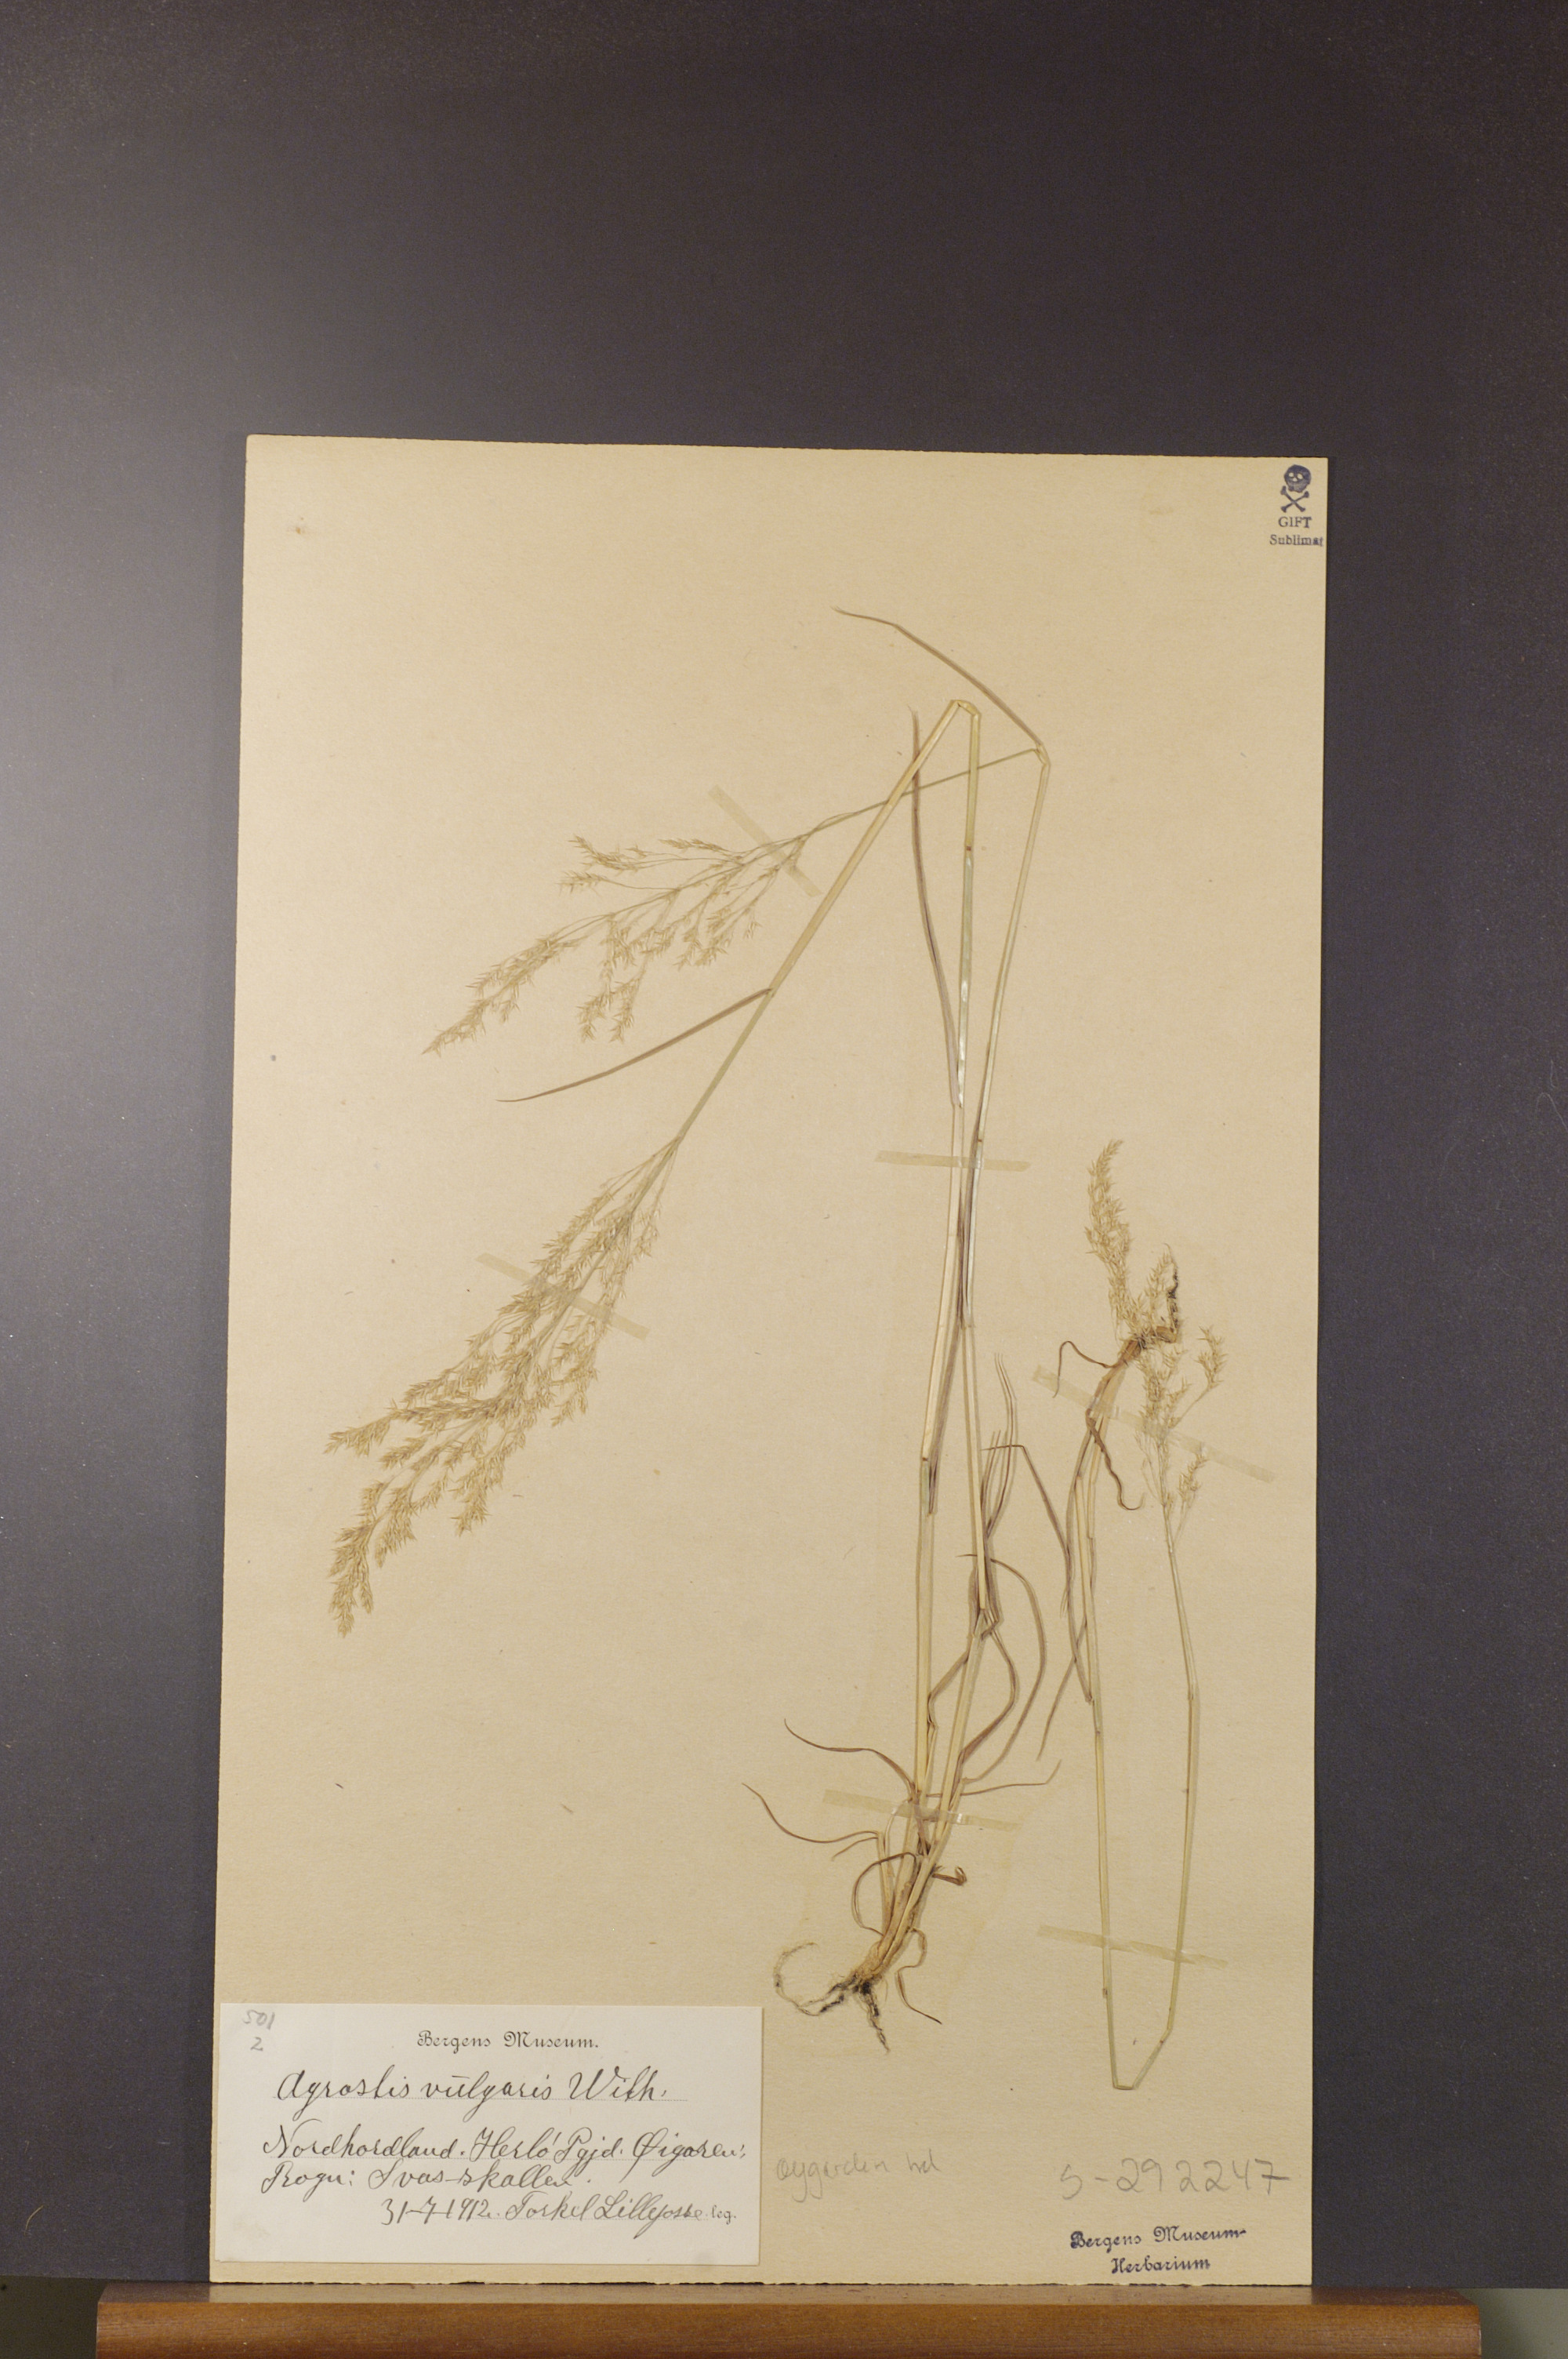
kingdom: Plantae
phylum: Tracheophyta
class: Liliopsida
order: Poales
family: Poaceae
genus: Agrostis
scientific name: Agrostis capillaris
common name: Colonial bentgrass
